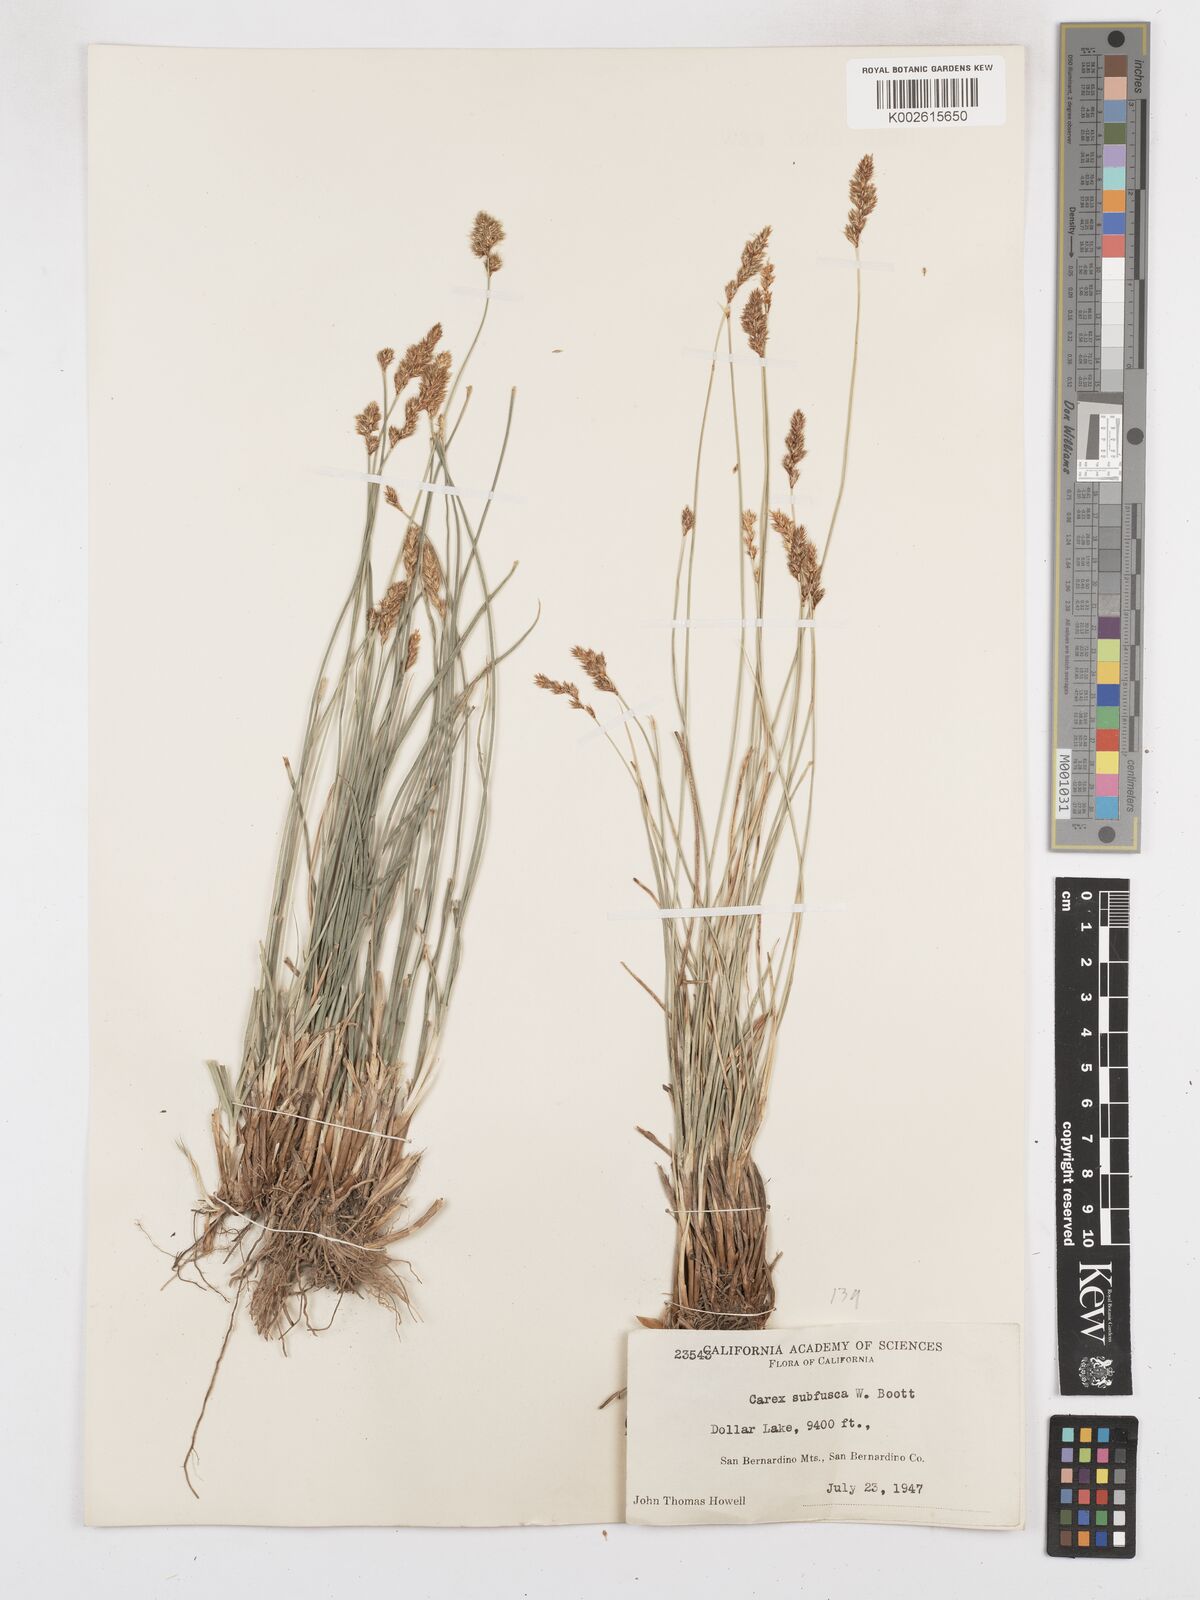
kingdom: Plantae
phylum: Tracheophyta
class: Liliopsida
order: Poales
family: Cyperaceae
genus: Carex
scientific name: Carex subfusca
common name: Brown sedge
